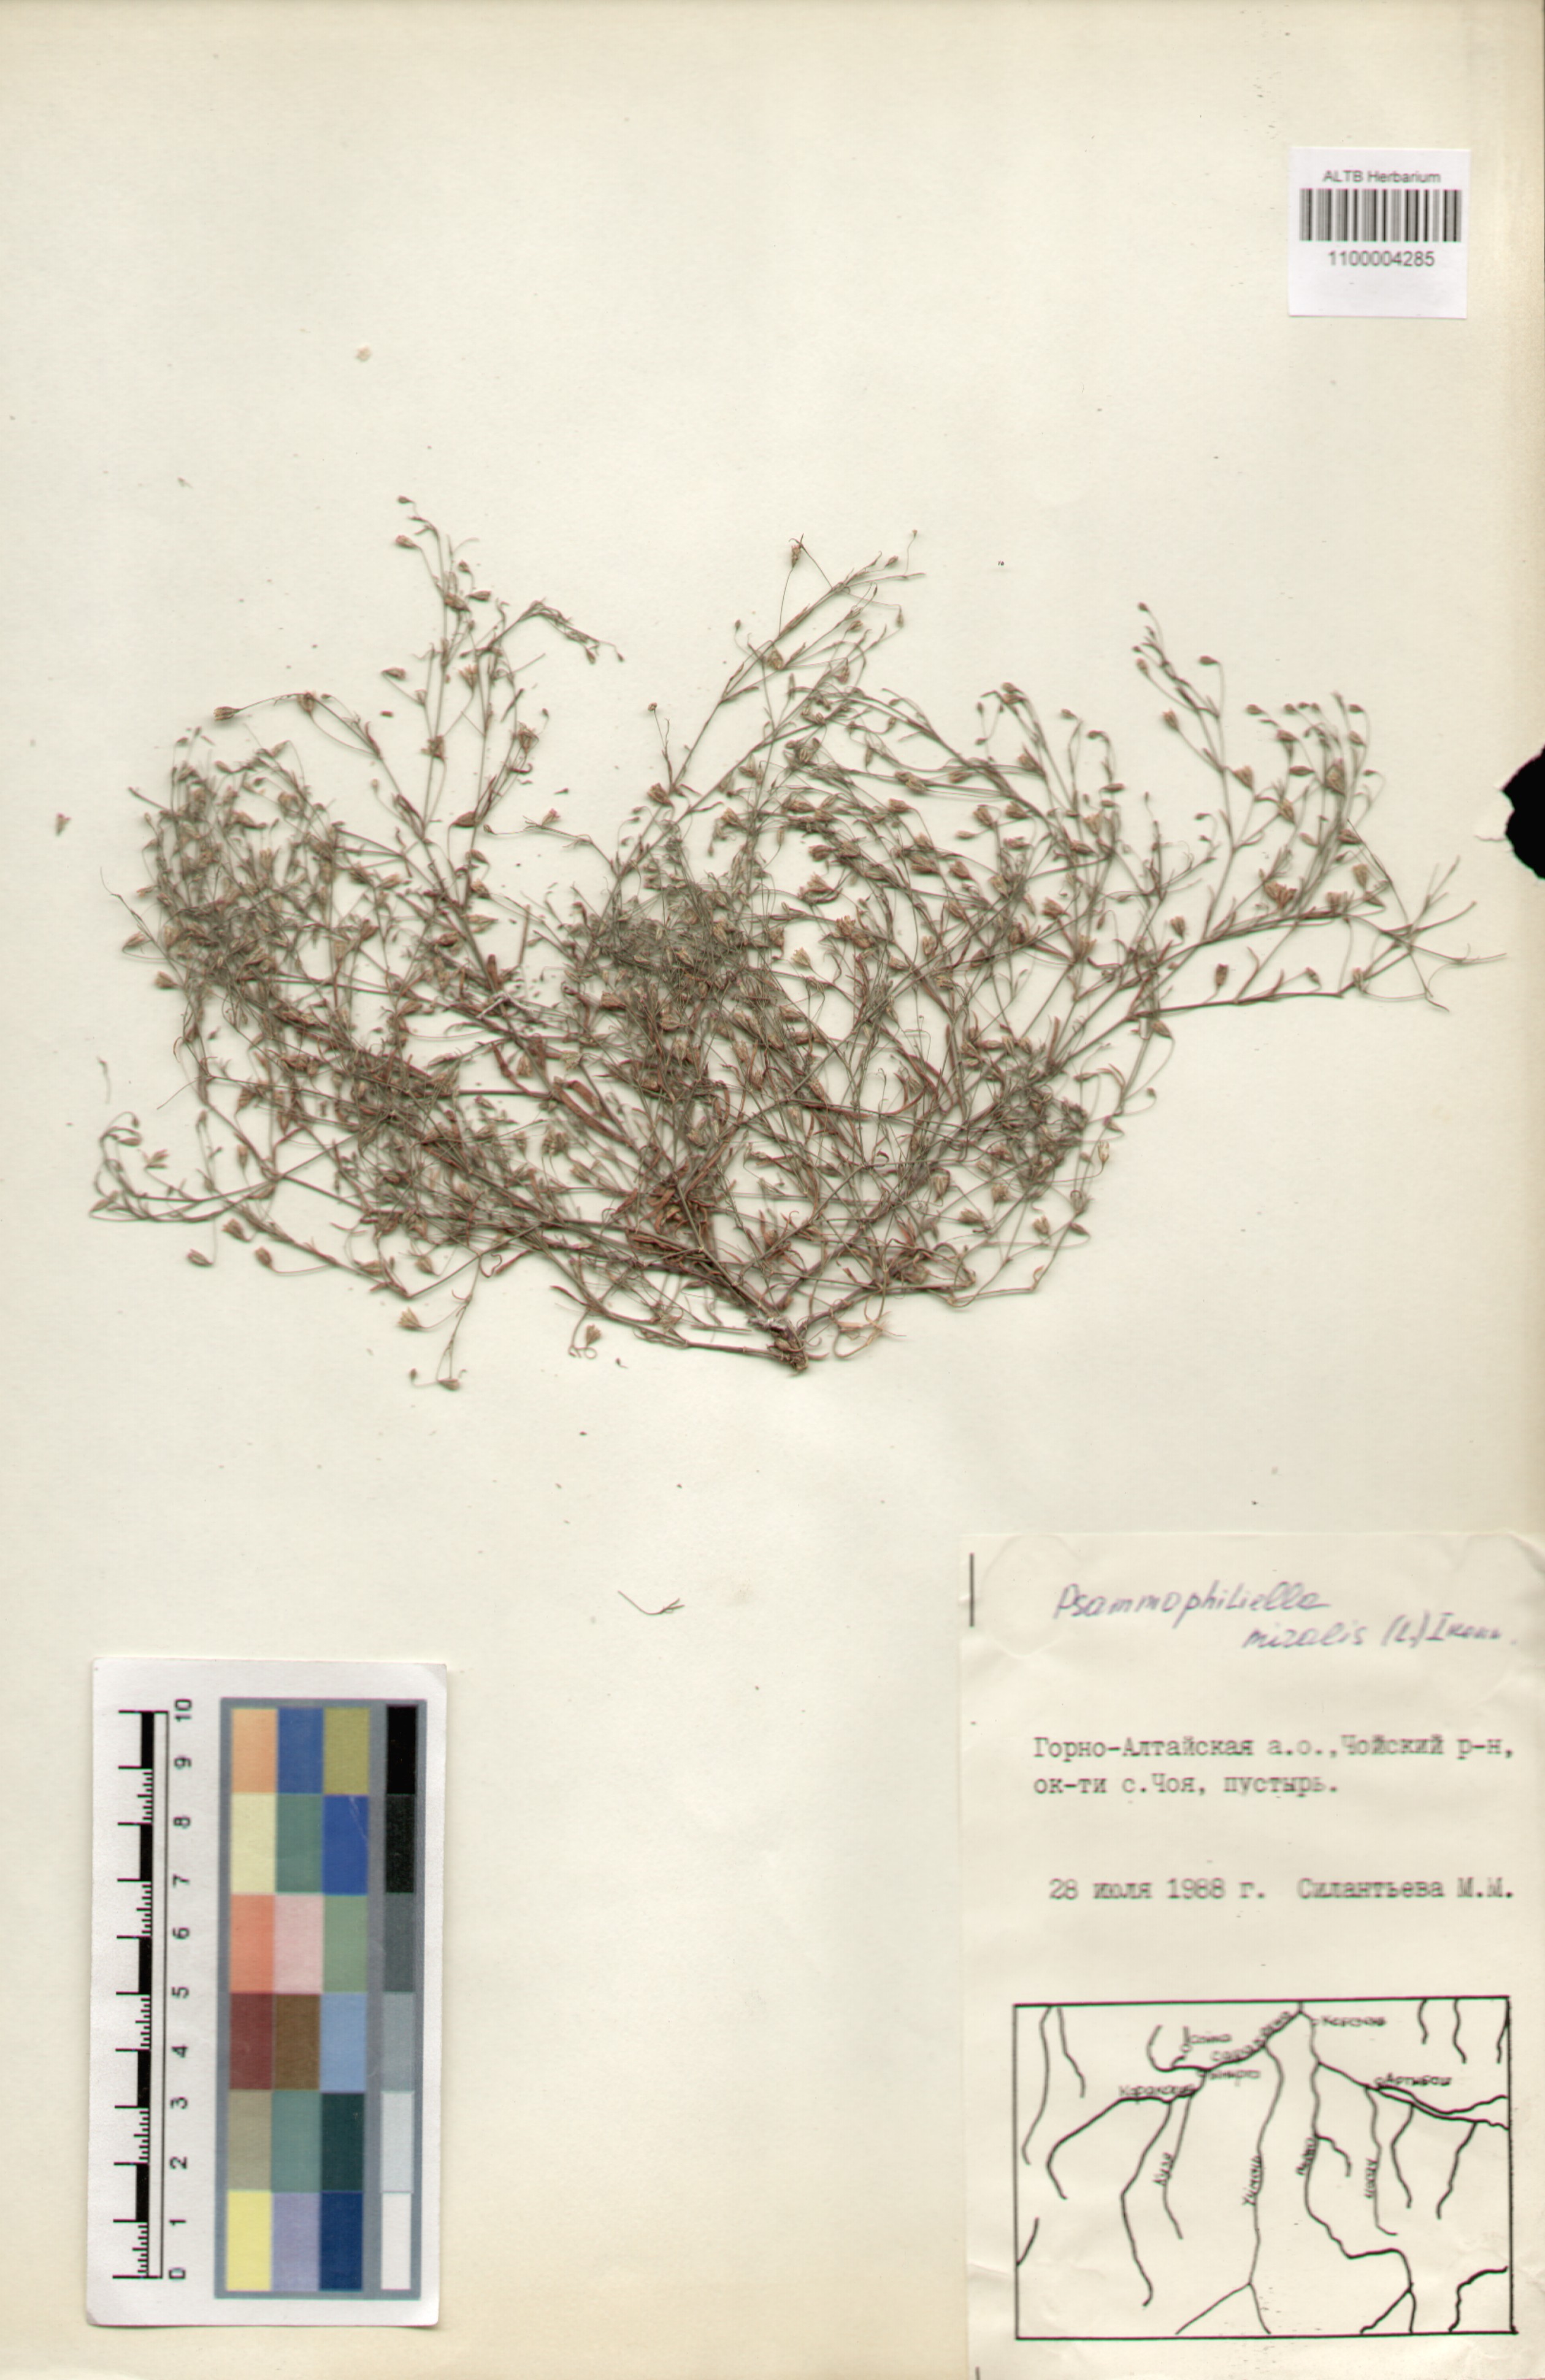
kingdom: Plantae
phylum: Tracheophyta
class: Magnoliopsida
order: Caryophyllales
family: Caryophyllaceae
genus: Psammophiliella
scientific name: Psammophiliella muralis
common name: Cushion baby's-breath
